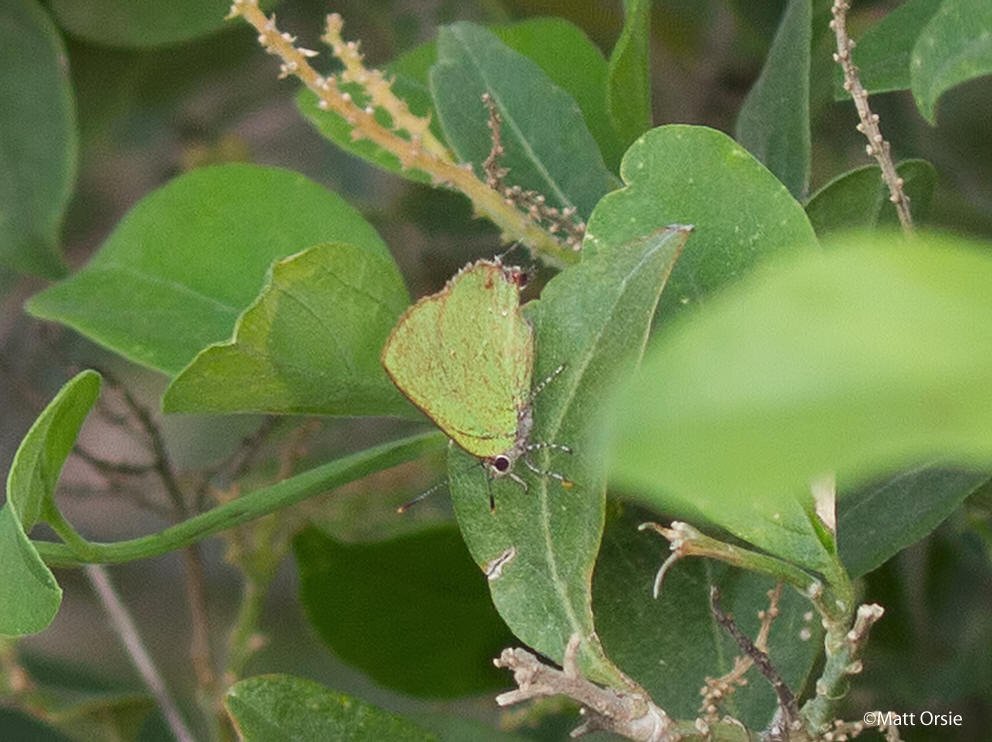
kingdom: Animalia
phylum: Arthropoda
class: Insecta
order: Lepidoptera
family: Lycaenidae
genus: Thecla
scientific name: Thecla herodotus
